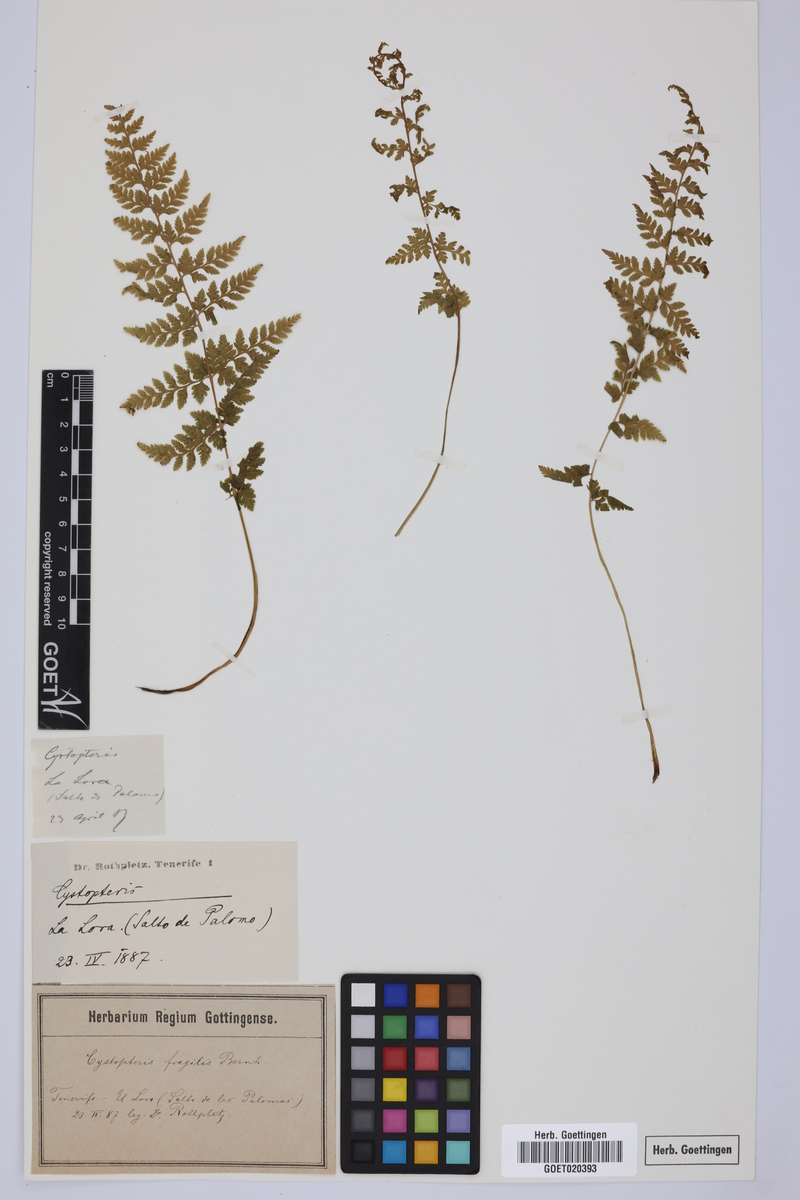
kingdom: Plantae
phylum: Tracheophyta
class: Polypodiopsida
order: Polypodiales
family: Cystopteridaceae
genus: Cystopteris
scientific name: Cystopteris fragilis
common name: Brittle bladder fern
